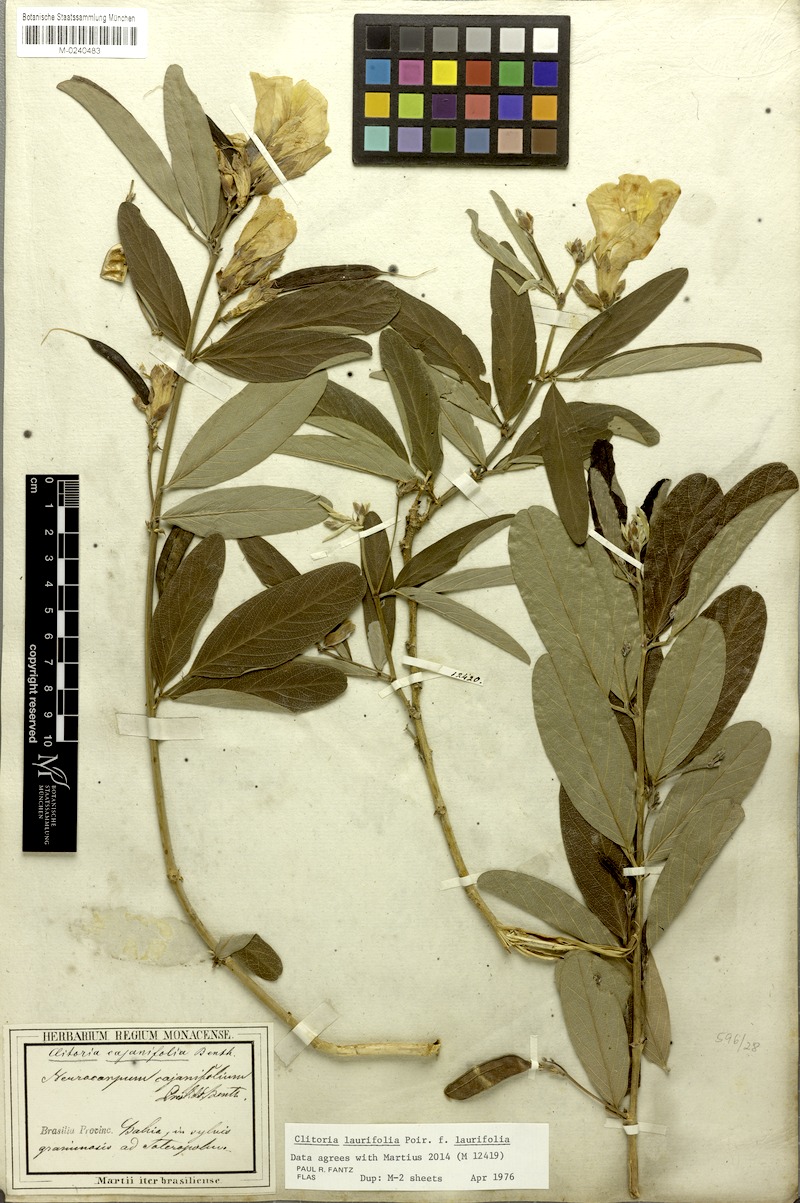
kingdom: Plantae
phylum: Tracheophyta
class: Magnoliopsida
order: Fabales
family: Fabaceae
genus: Clitoria
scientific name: Clitoria laurifolia
